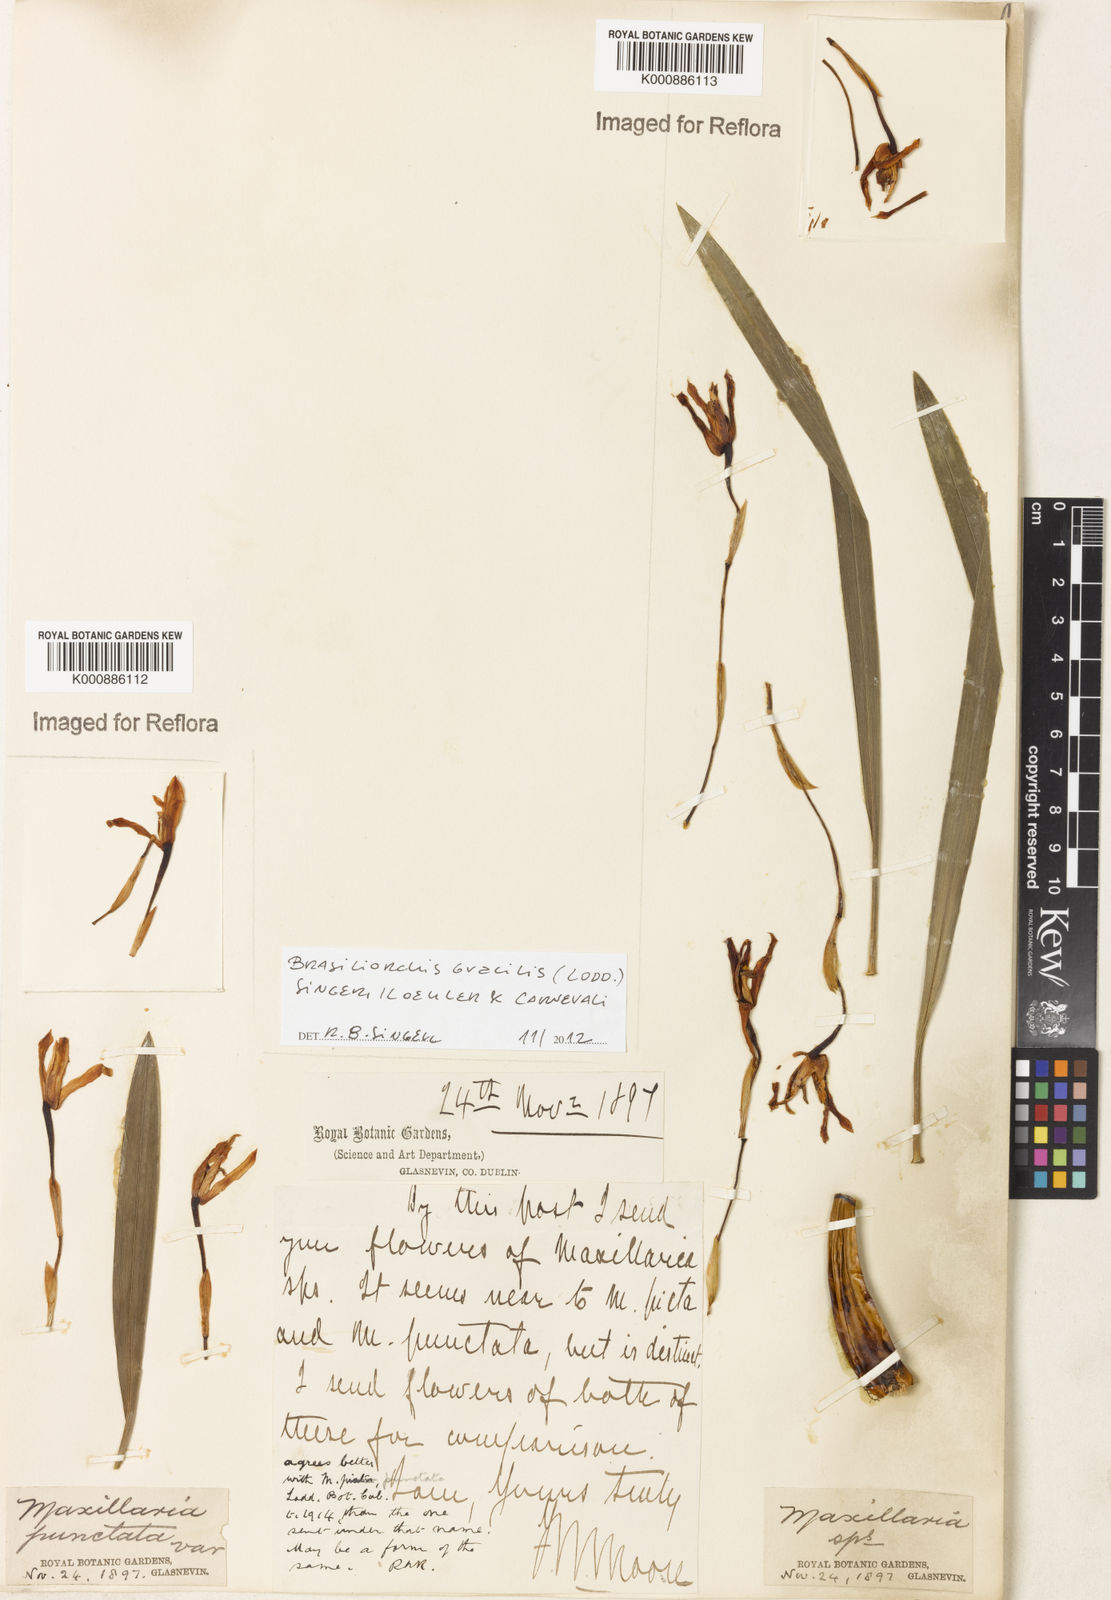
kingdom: Plantae
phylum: Tracheophyta
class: Liliopsida
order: Asparagales
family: Orchidaceae
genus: Maxillaria
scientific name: Maxillaria
